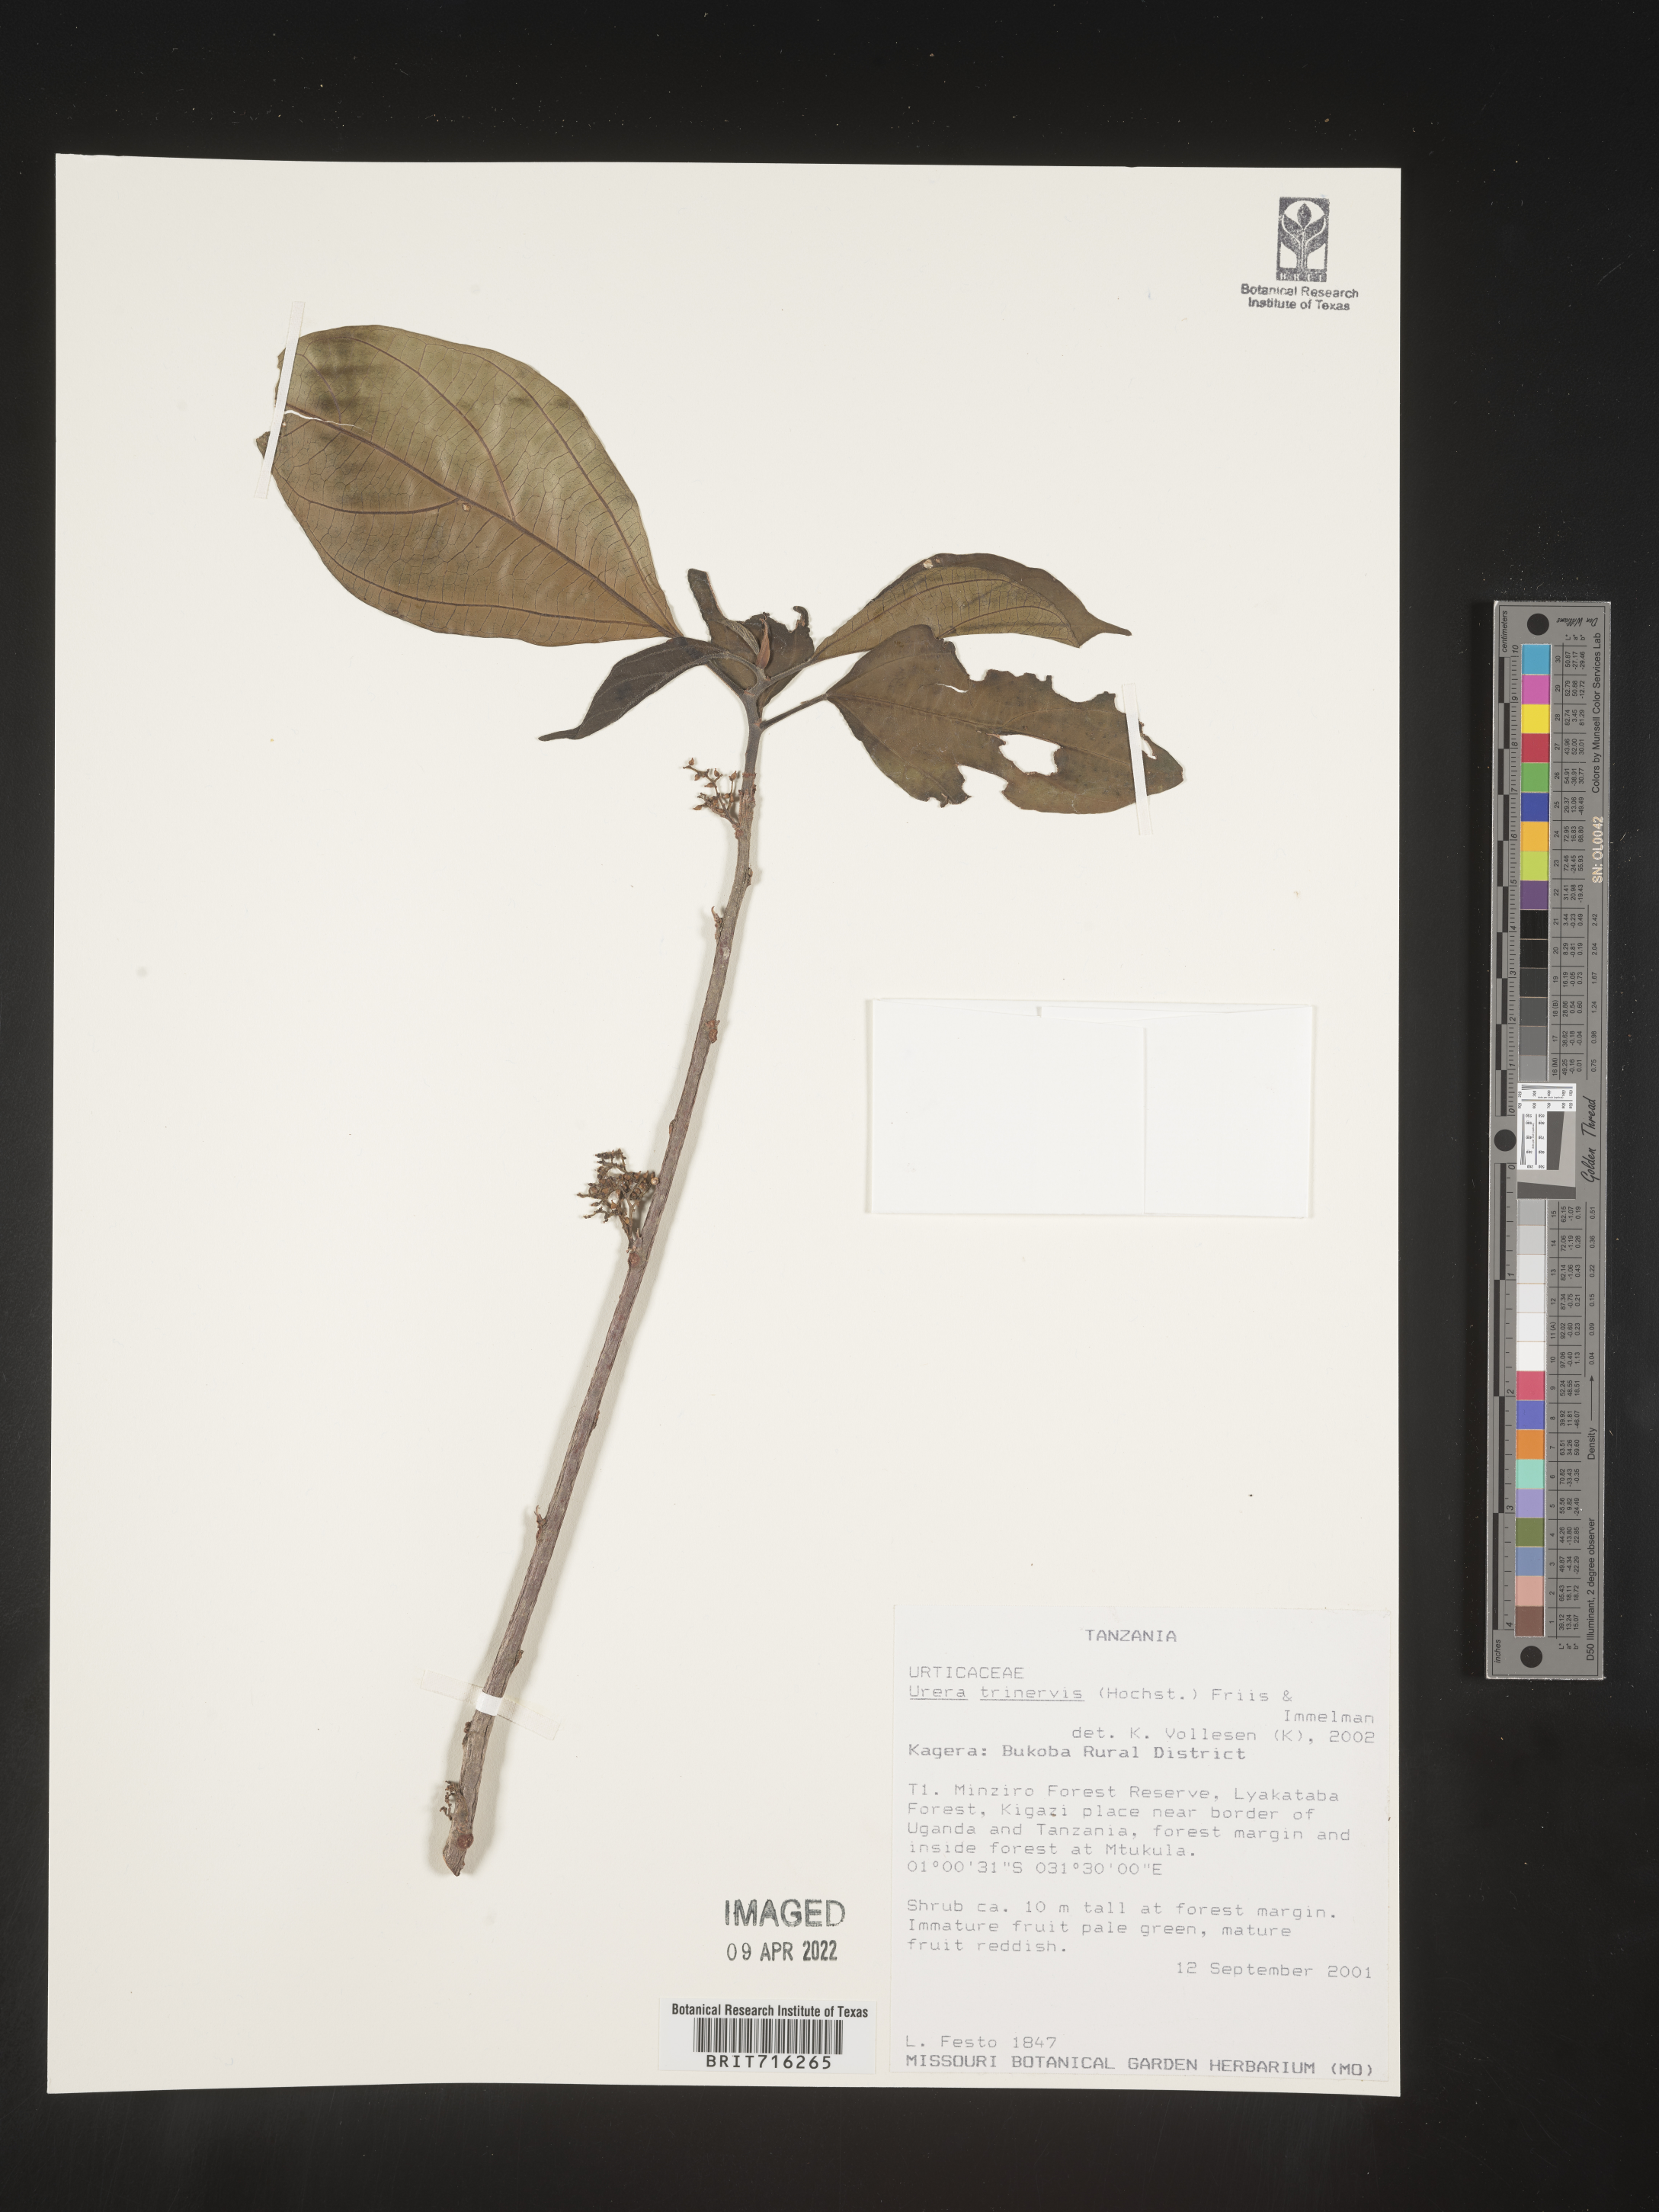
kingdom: Plantae
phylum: Tracheophyta
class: Magnoliopsida
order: Rosales
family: Urticaceae
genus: Urera
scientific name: Urera
